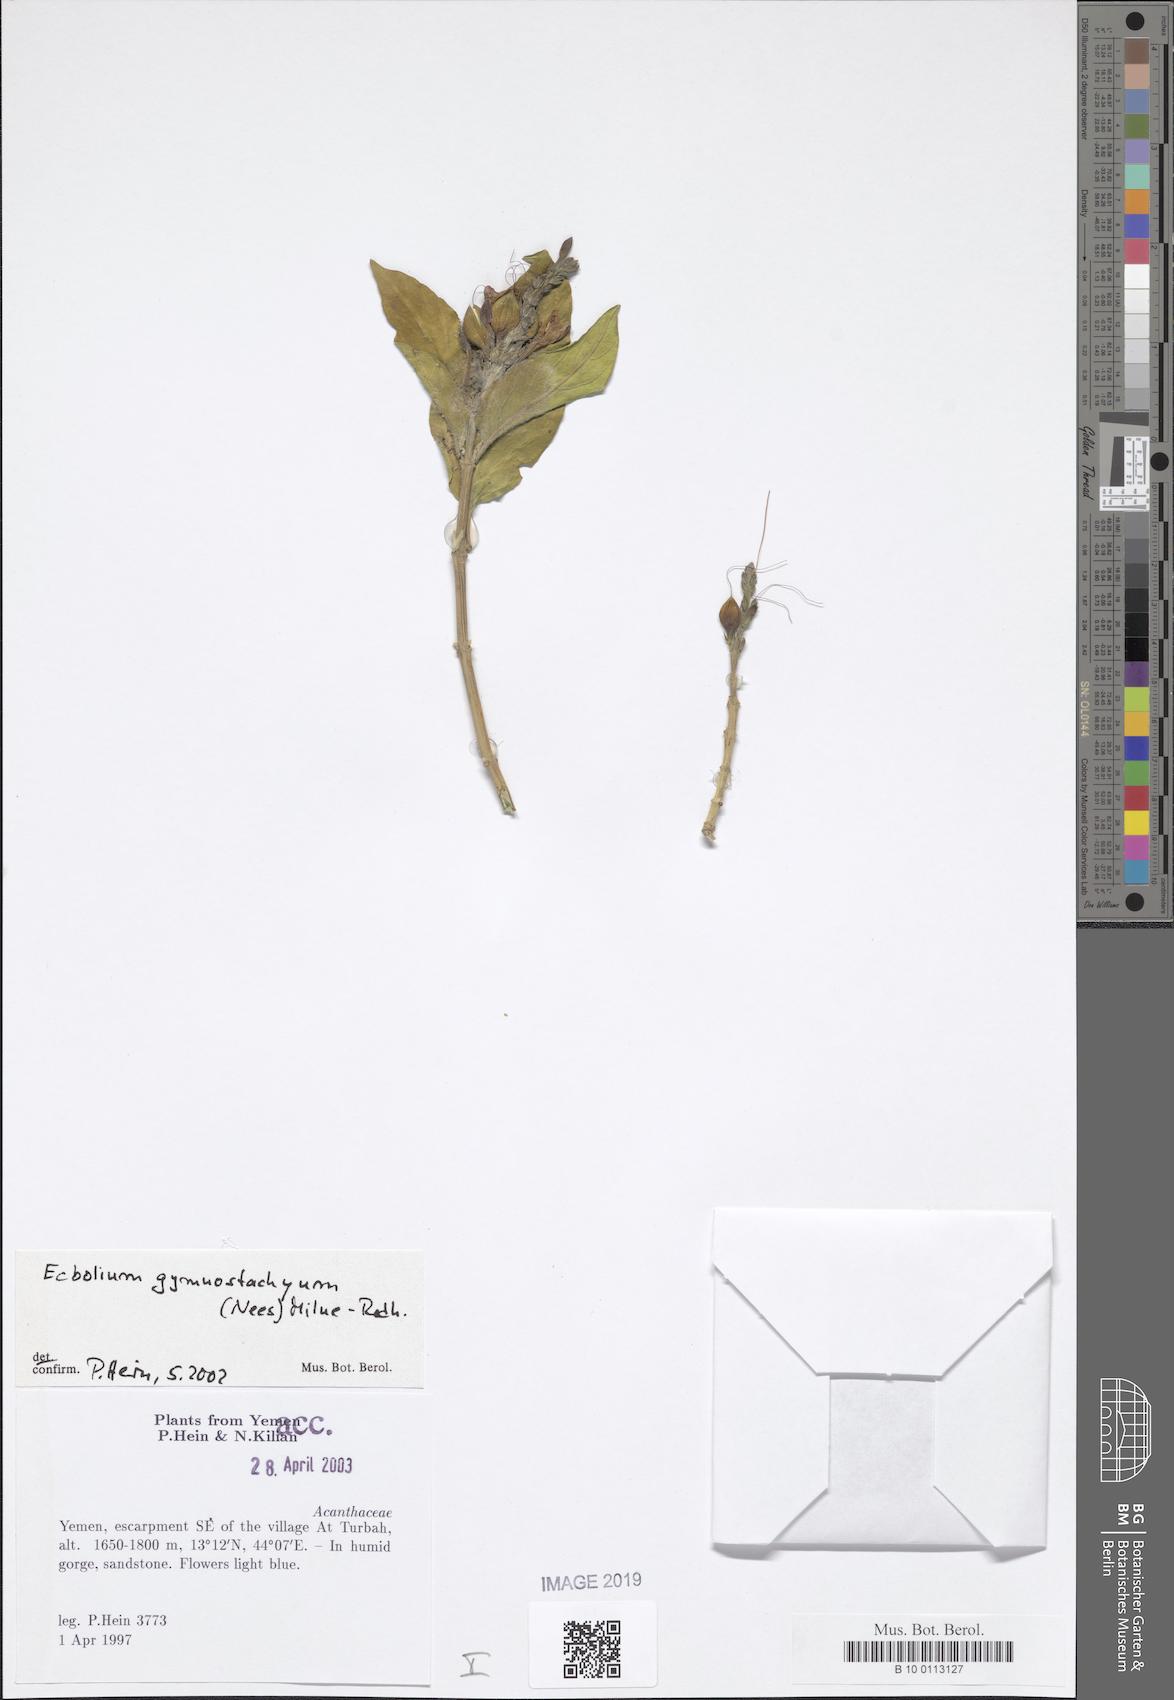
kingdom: Plantae
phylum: Tracheophyta
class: Magnoliopsida
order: Lamiales
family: Acanthaceae
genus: Ecbolium
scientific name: Ecbolium gymnostachyum
